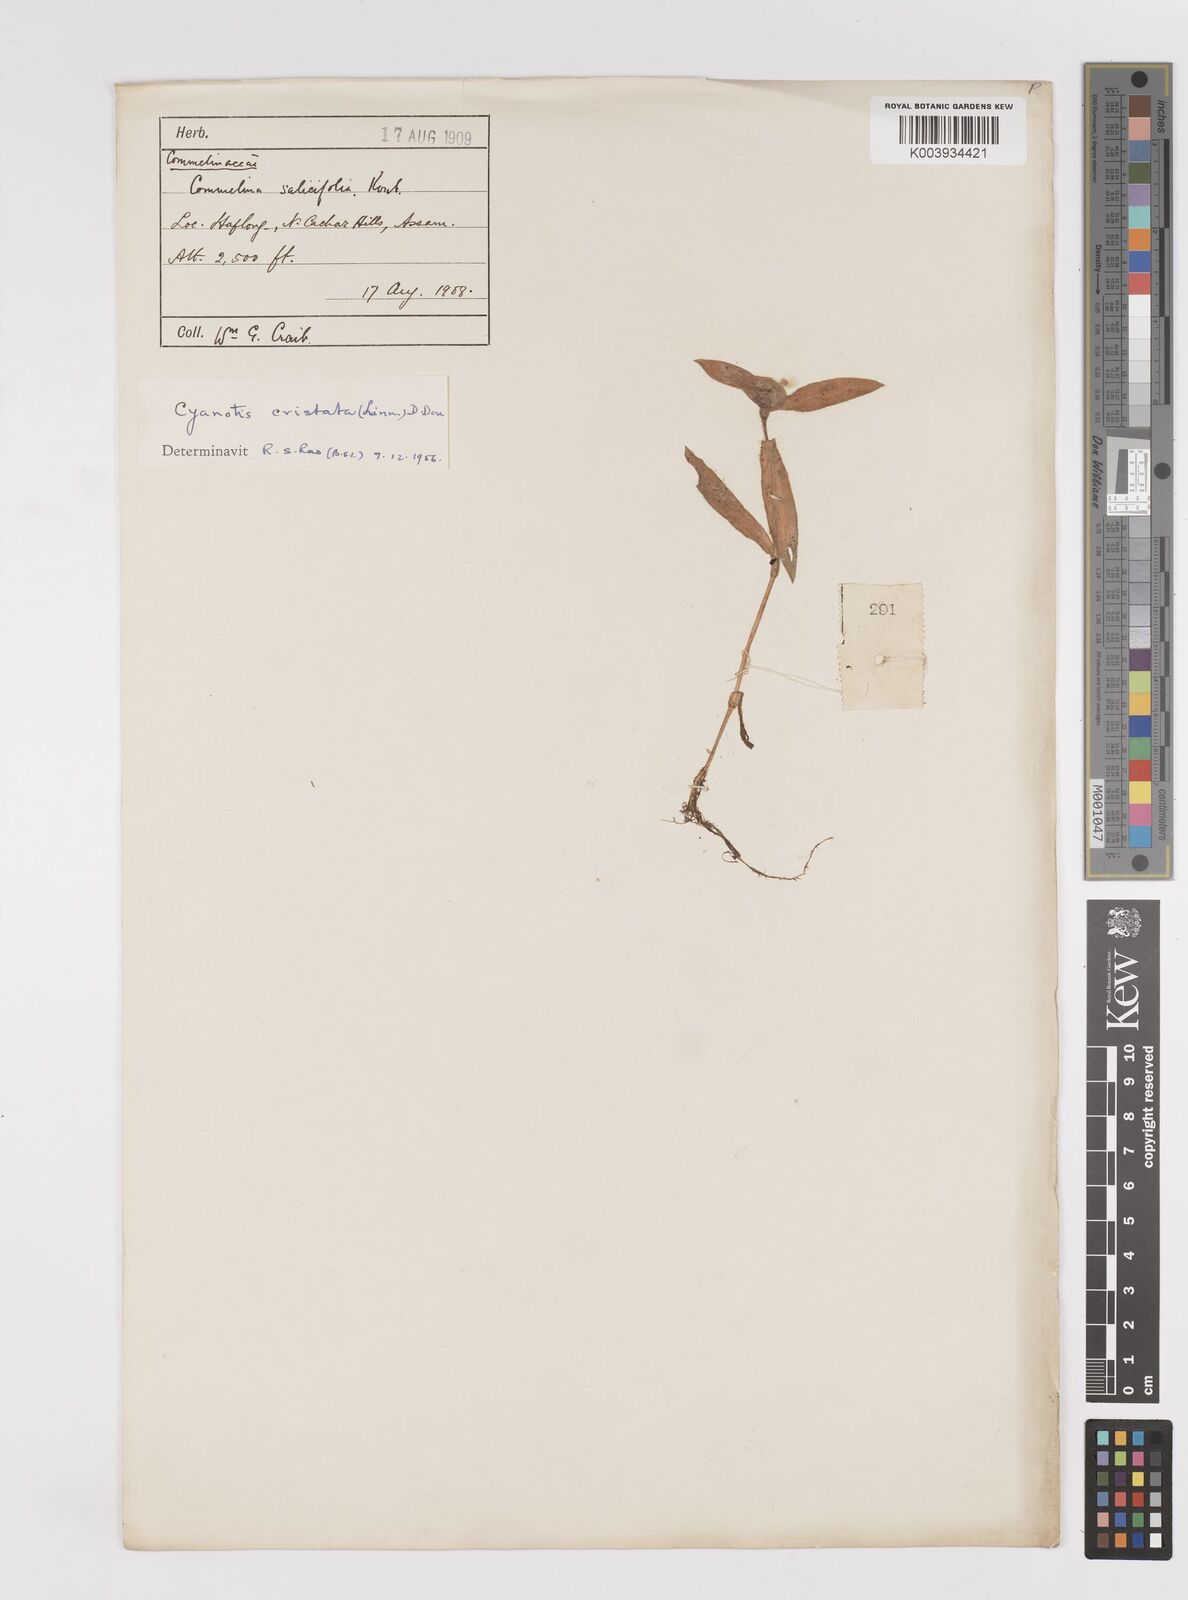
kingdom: Plantae
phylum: Tracheophyta
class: Liliopsida
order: Commelinales
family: Commelinaceae
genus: Cyanotis
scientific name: Cyanotis cristata
